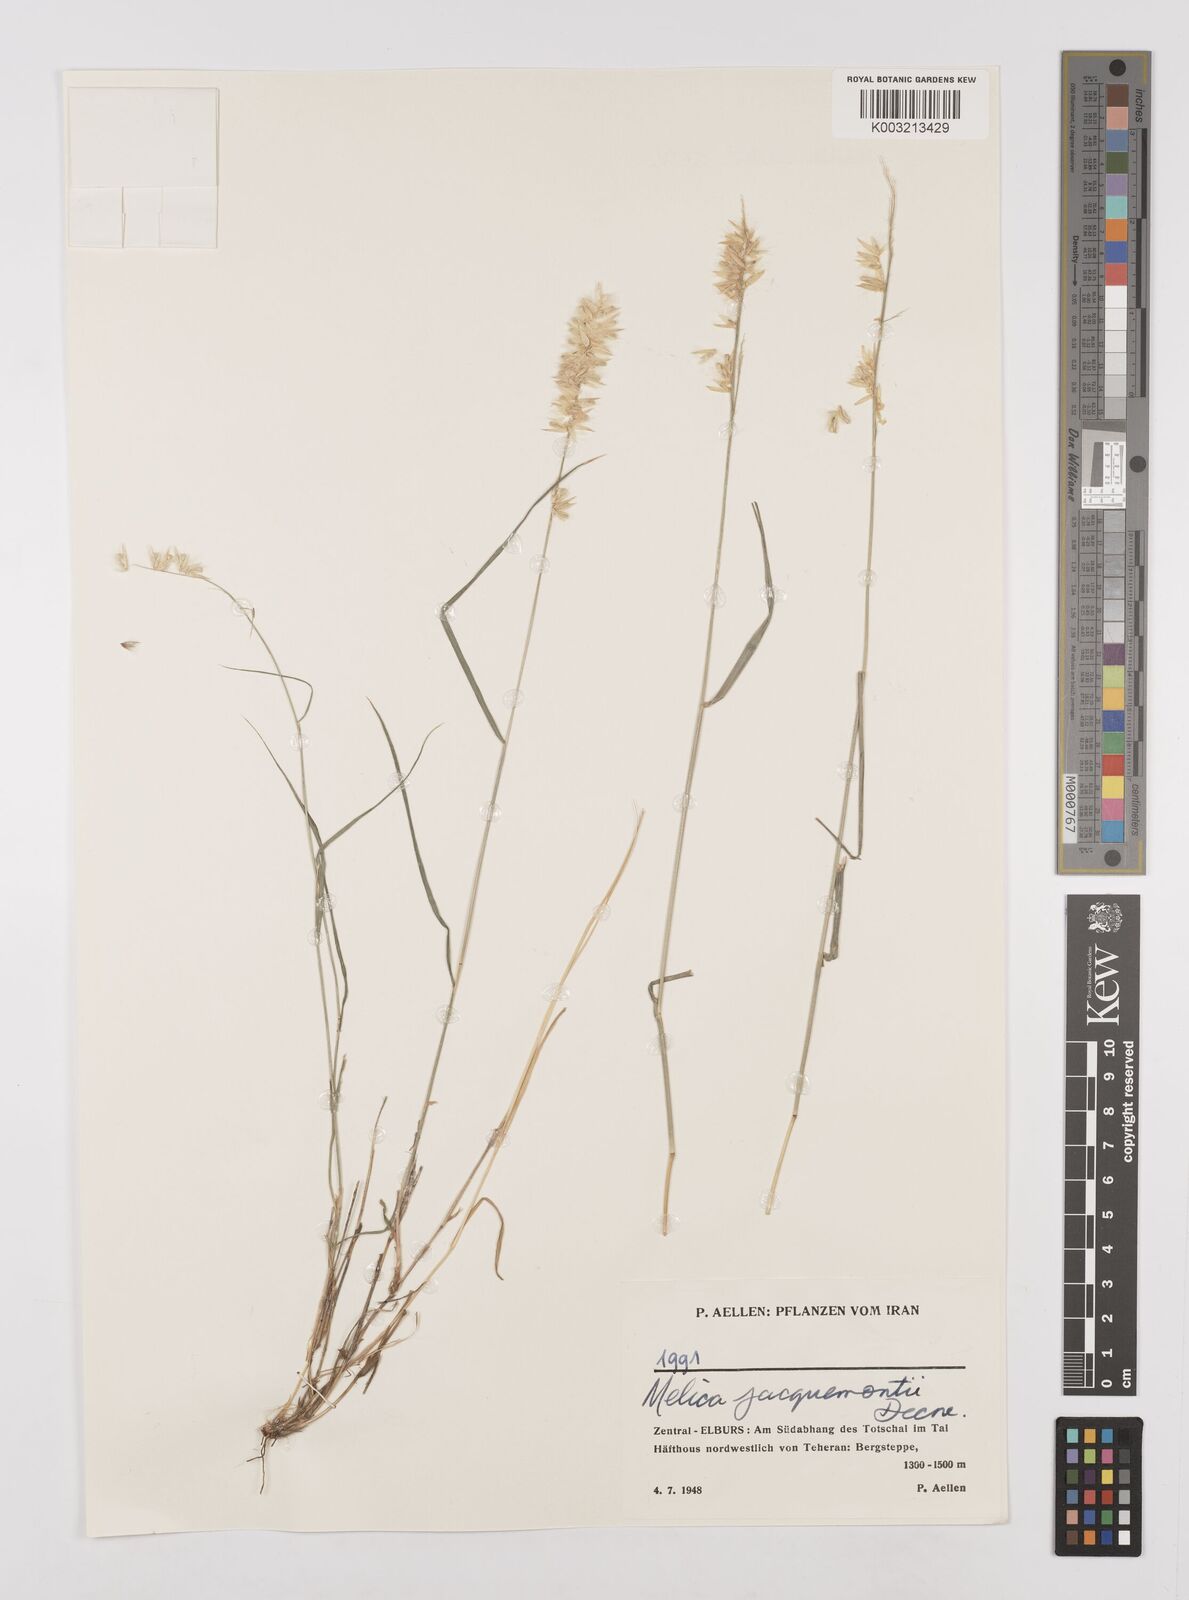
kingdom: Plantae
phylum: Tracheophyta
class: Liliopsida
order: Poales
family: Poaceae
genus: Melica
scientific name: Melica persica
